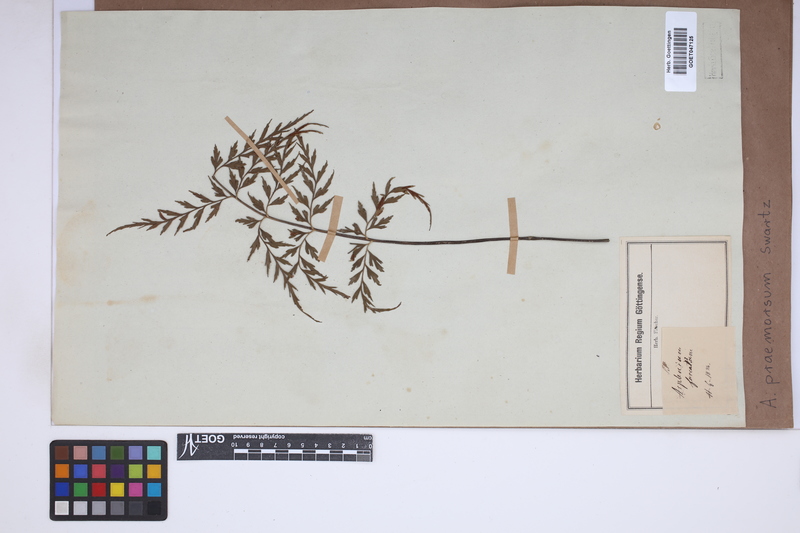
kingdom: Plantae
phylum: Tracheophyta
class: Polypodiopsida
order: Polypodiales
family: Aspleniaceae
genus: Asplenium
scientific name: Asplenium praemorsum
